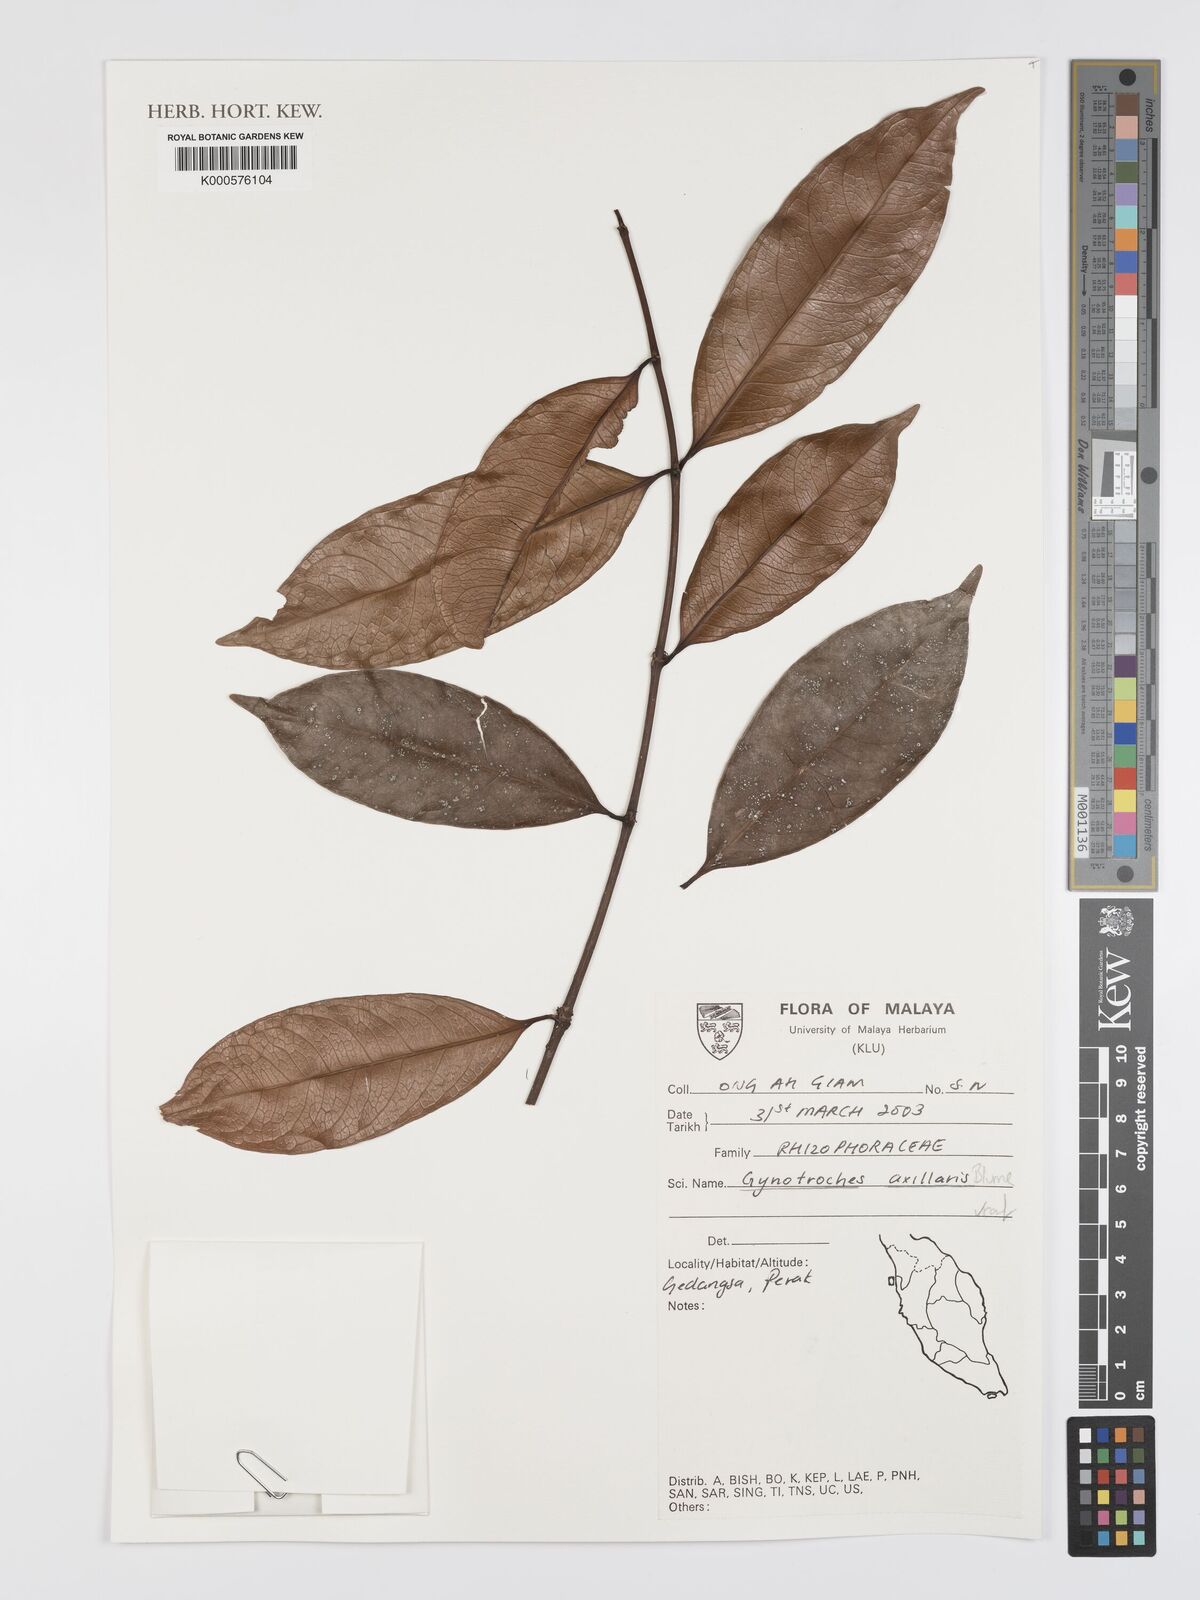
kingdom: Plantae
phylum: Tracheophyta
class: Magnoliopsida
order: Malpighiales
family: Rhizophoraceae
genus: Gynotroches
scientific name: Gynotroches axillaris
